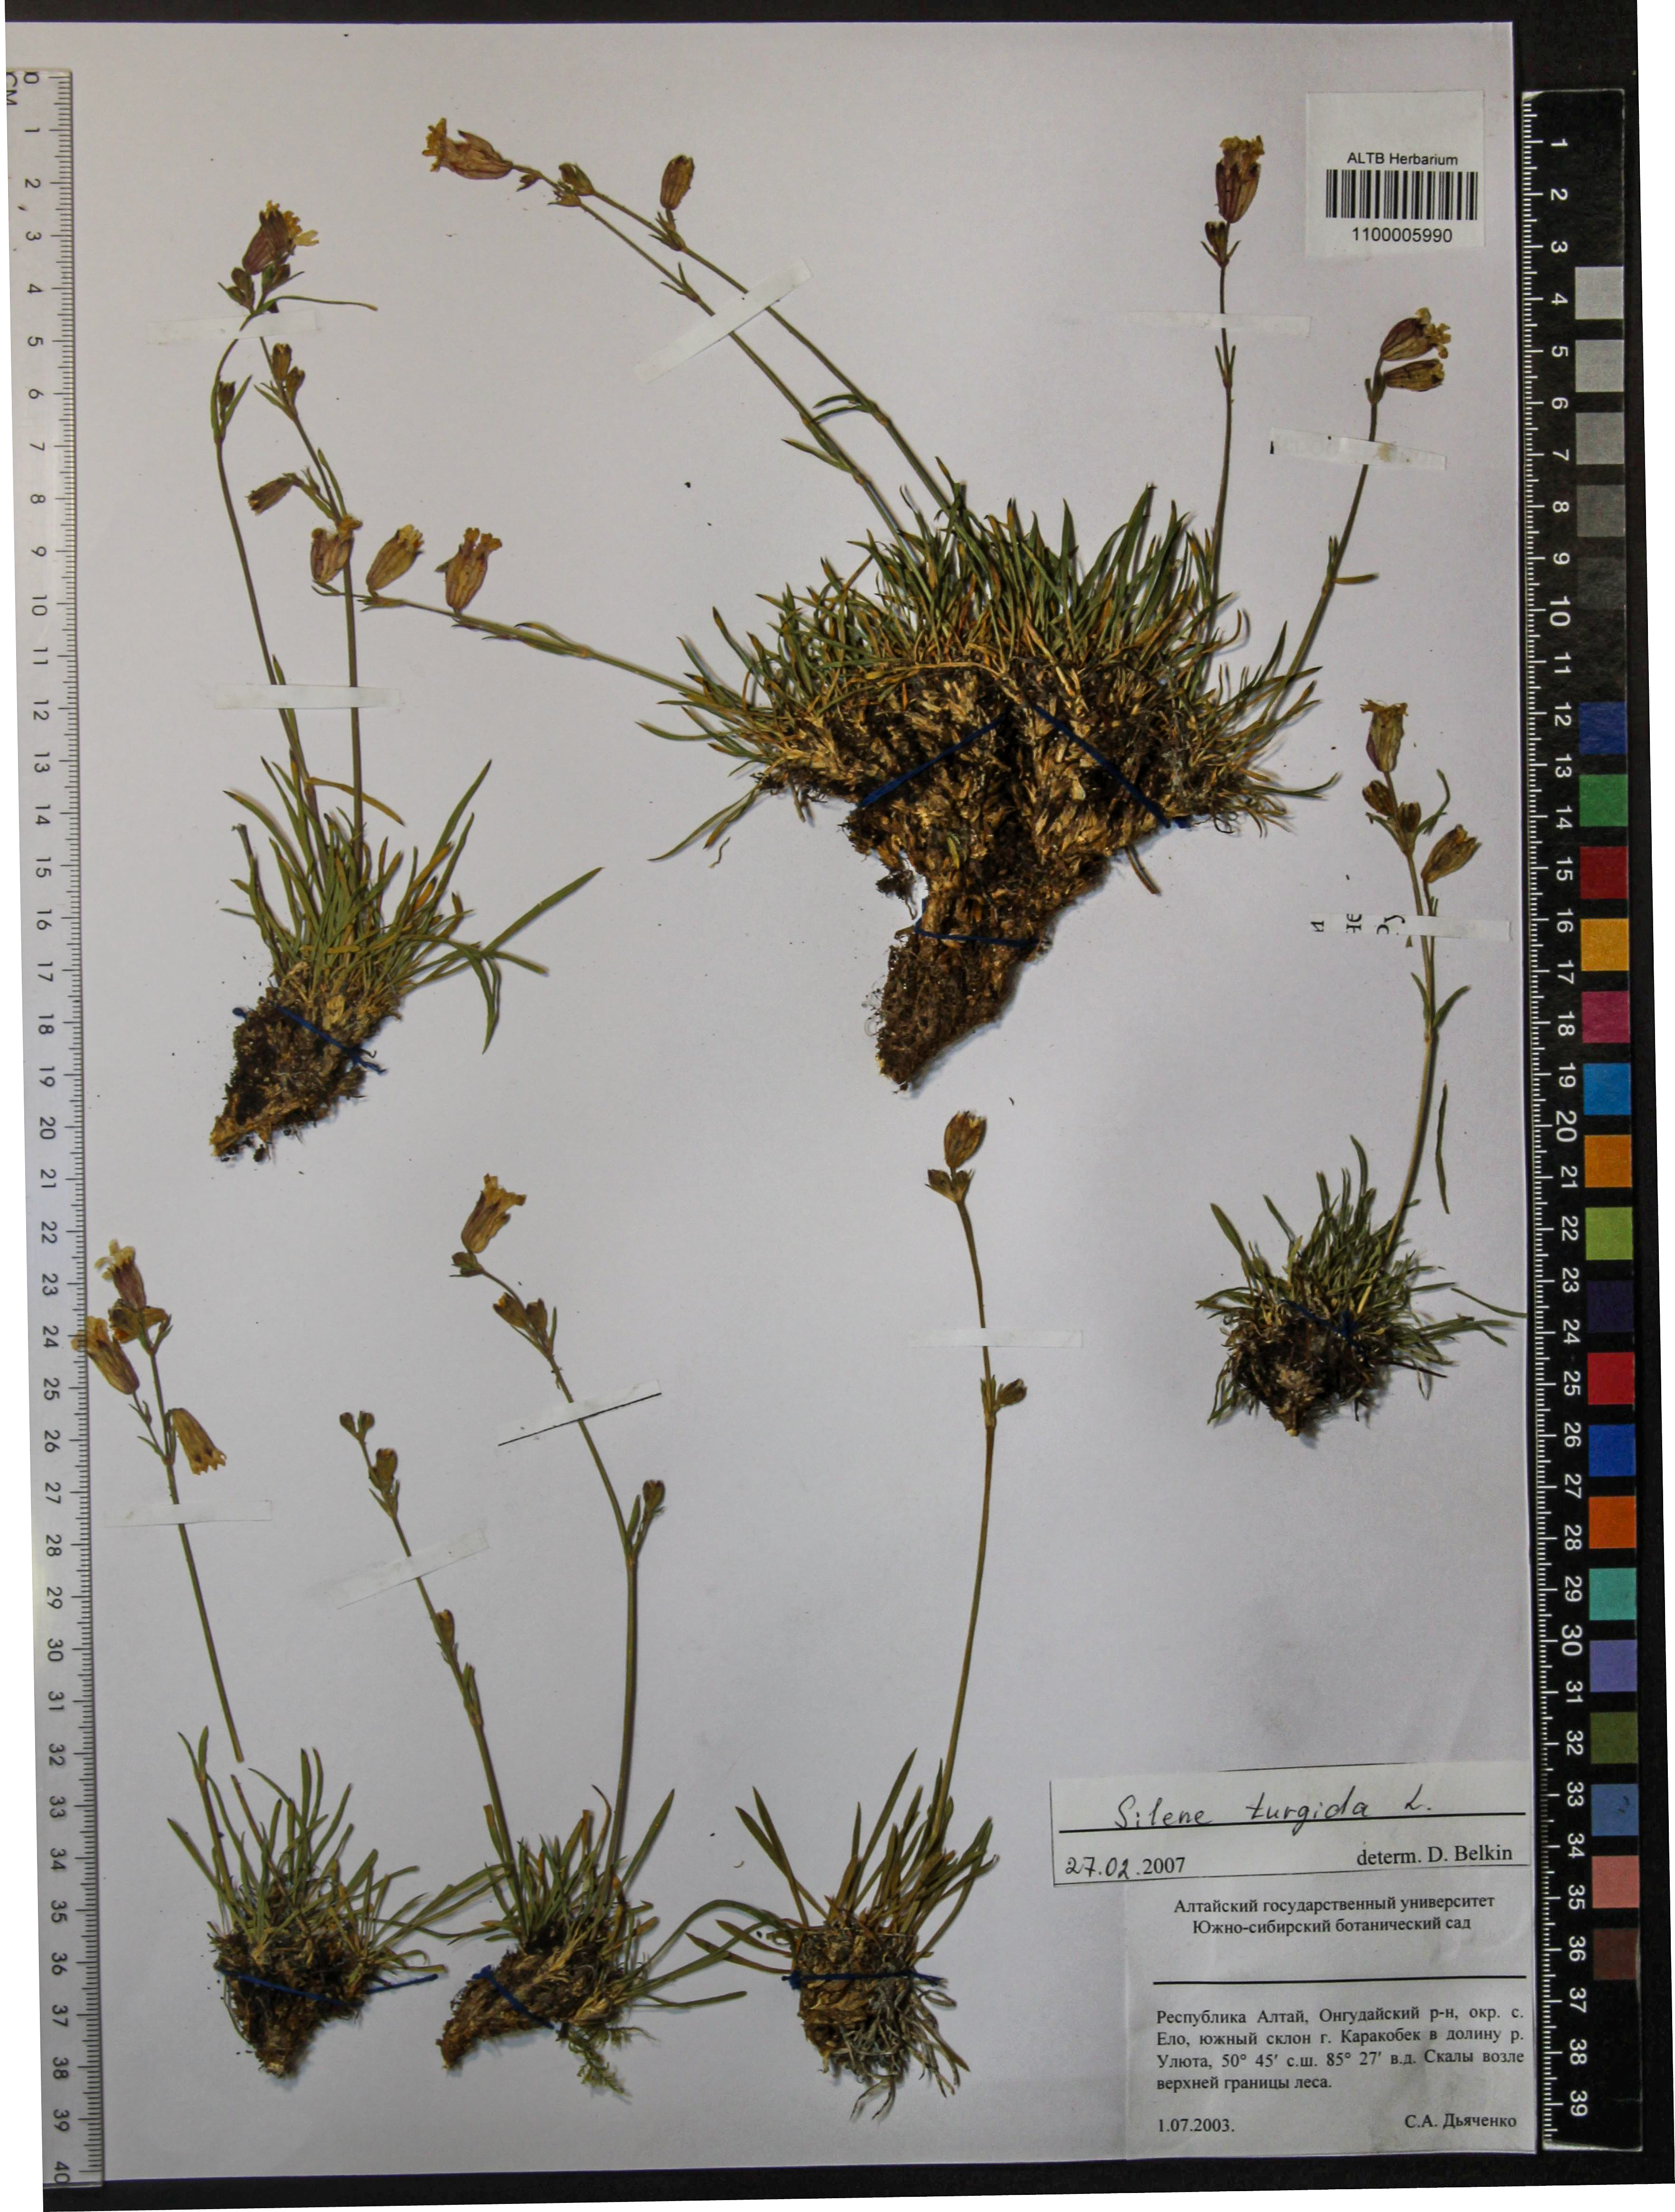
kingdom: Plantae
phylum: Tracheophyta
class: Magnoliopsida
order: Caryophyllales
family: Caryophyllaceae
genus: Silene
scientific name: Silene turgida
